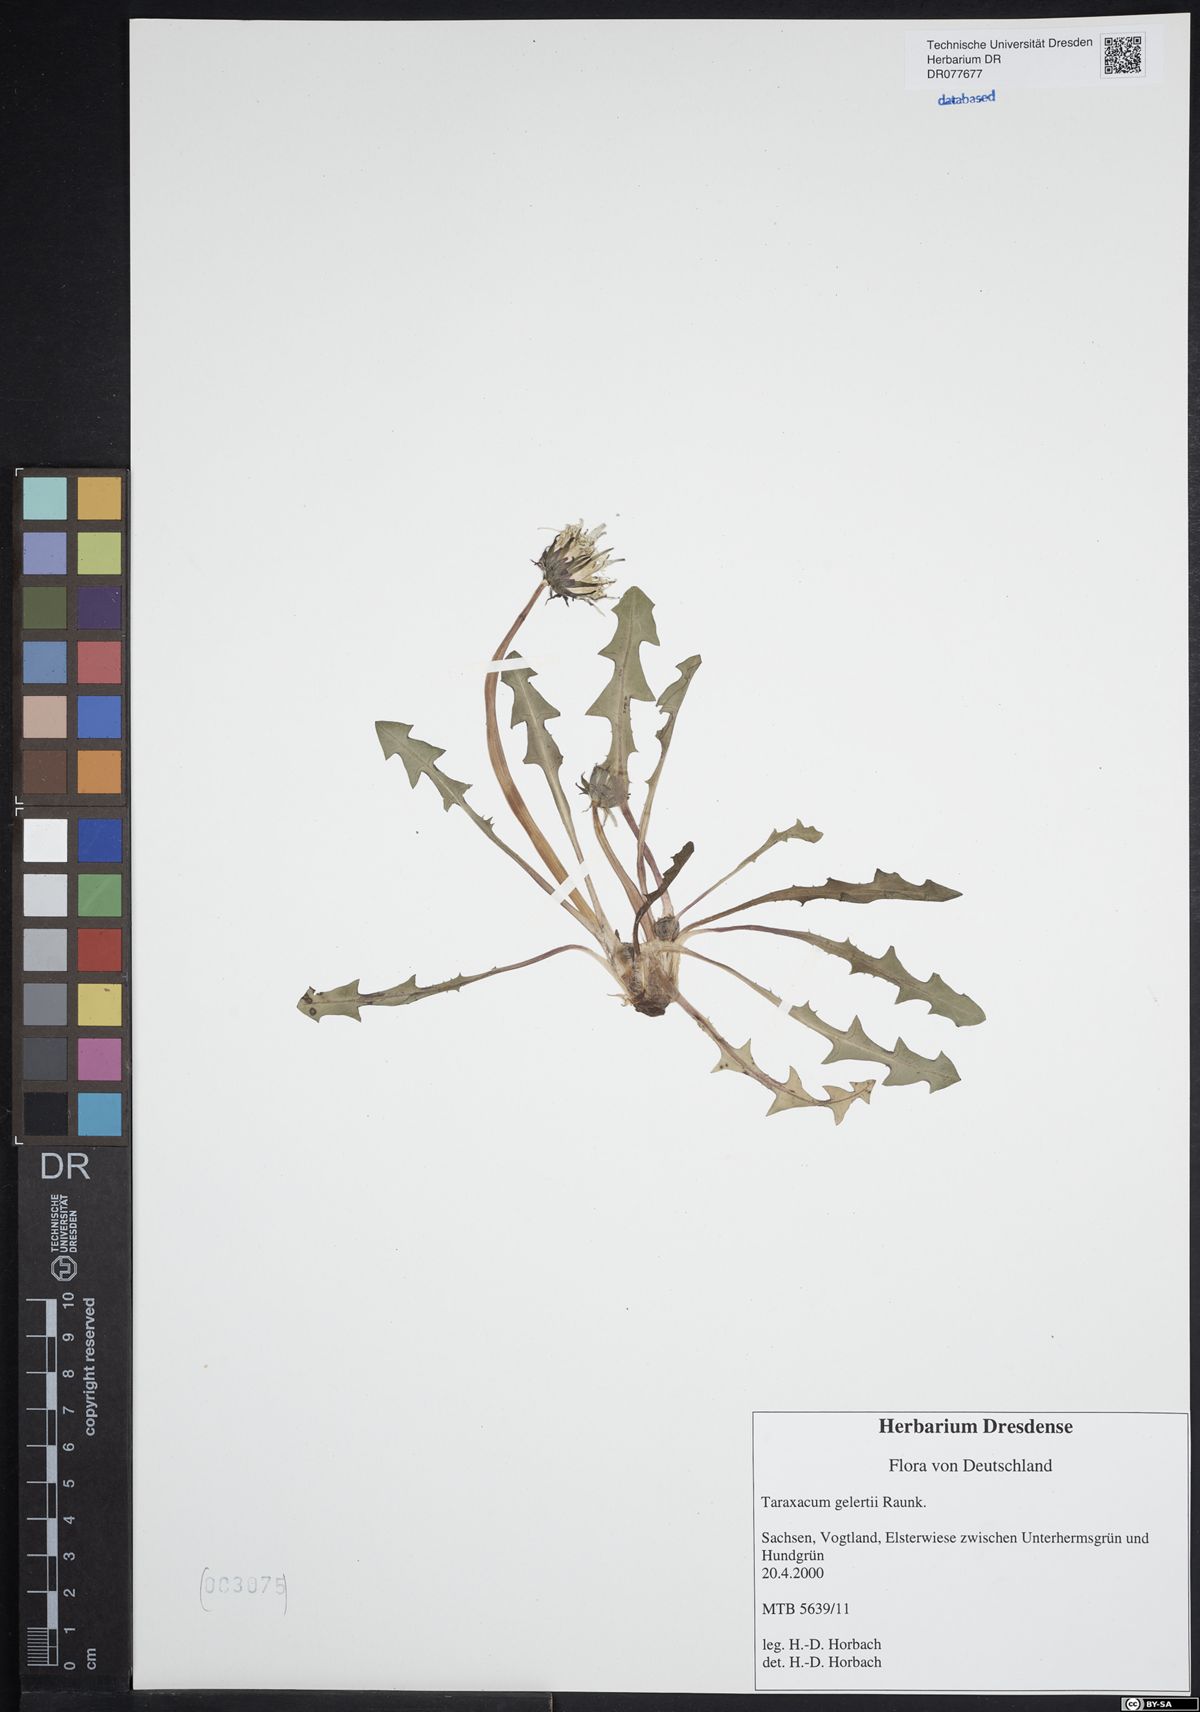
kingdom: Plantae
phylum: Tracheophyta
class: Magnoliopsida
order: Asterales
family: Asteraceae
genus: Taraxacum
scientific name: Taraxacum gelertii
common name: Gelert's dandelion
